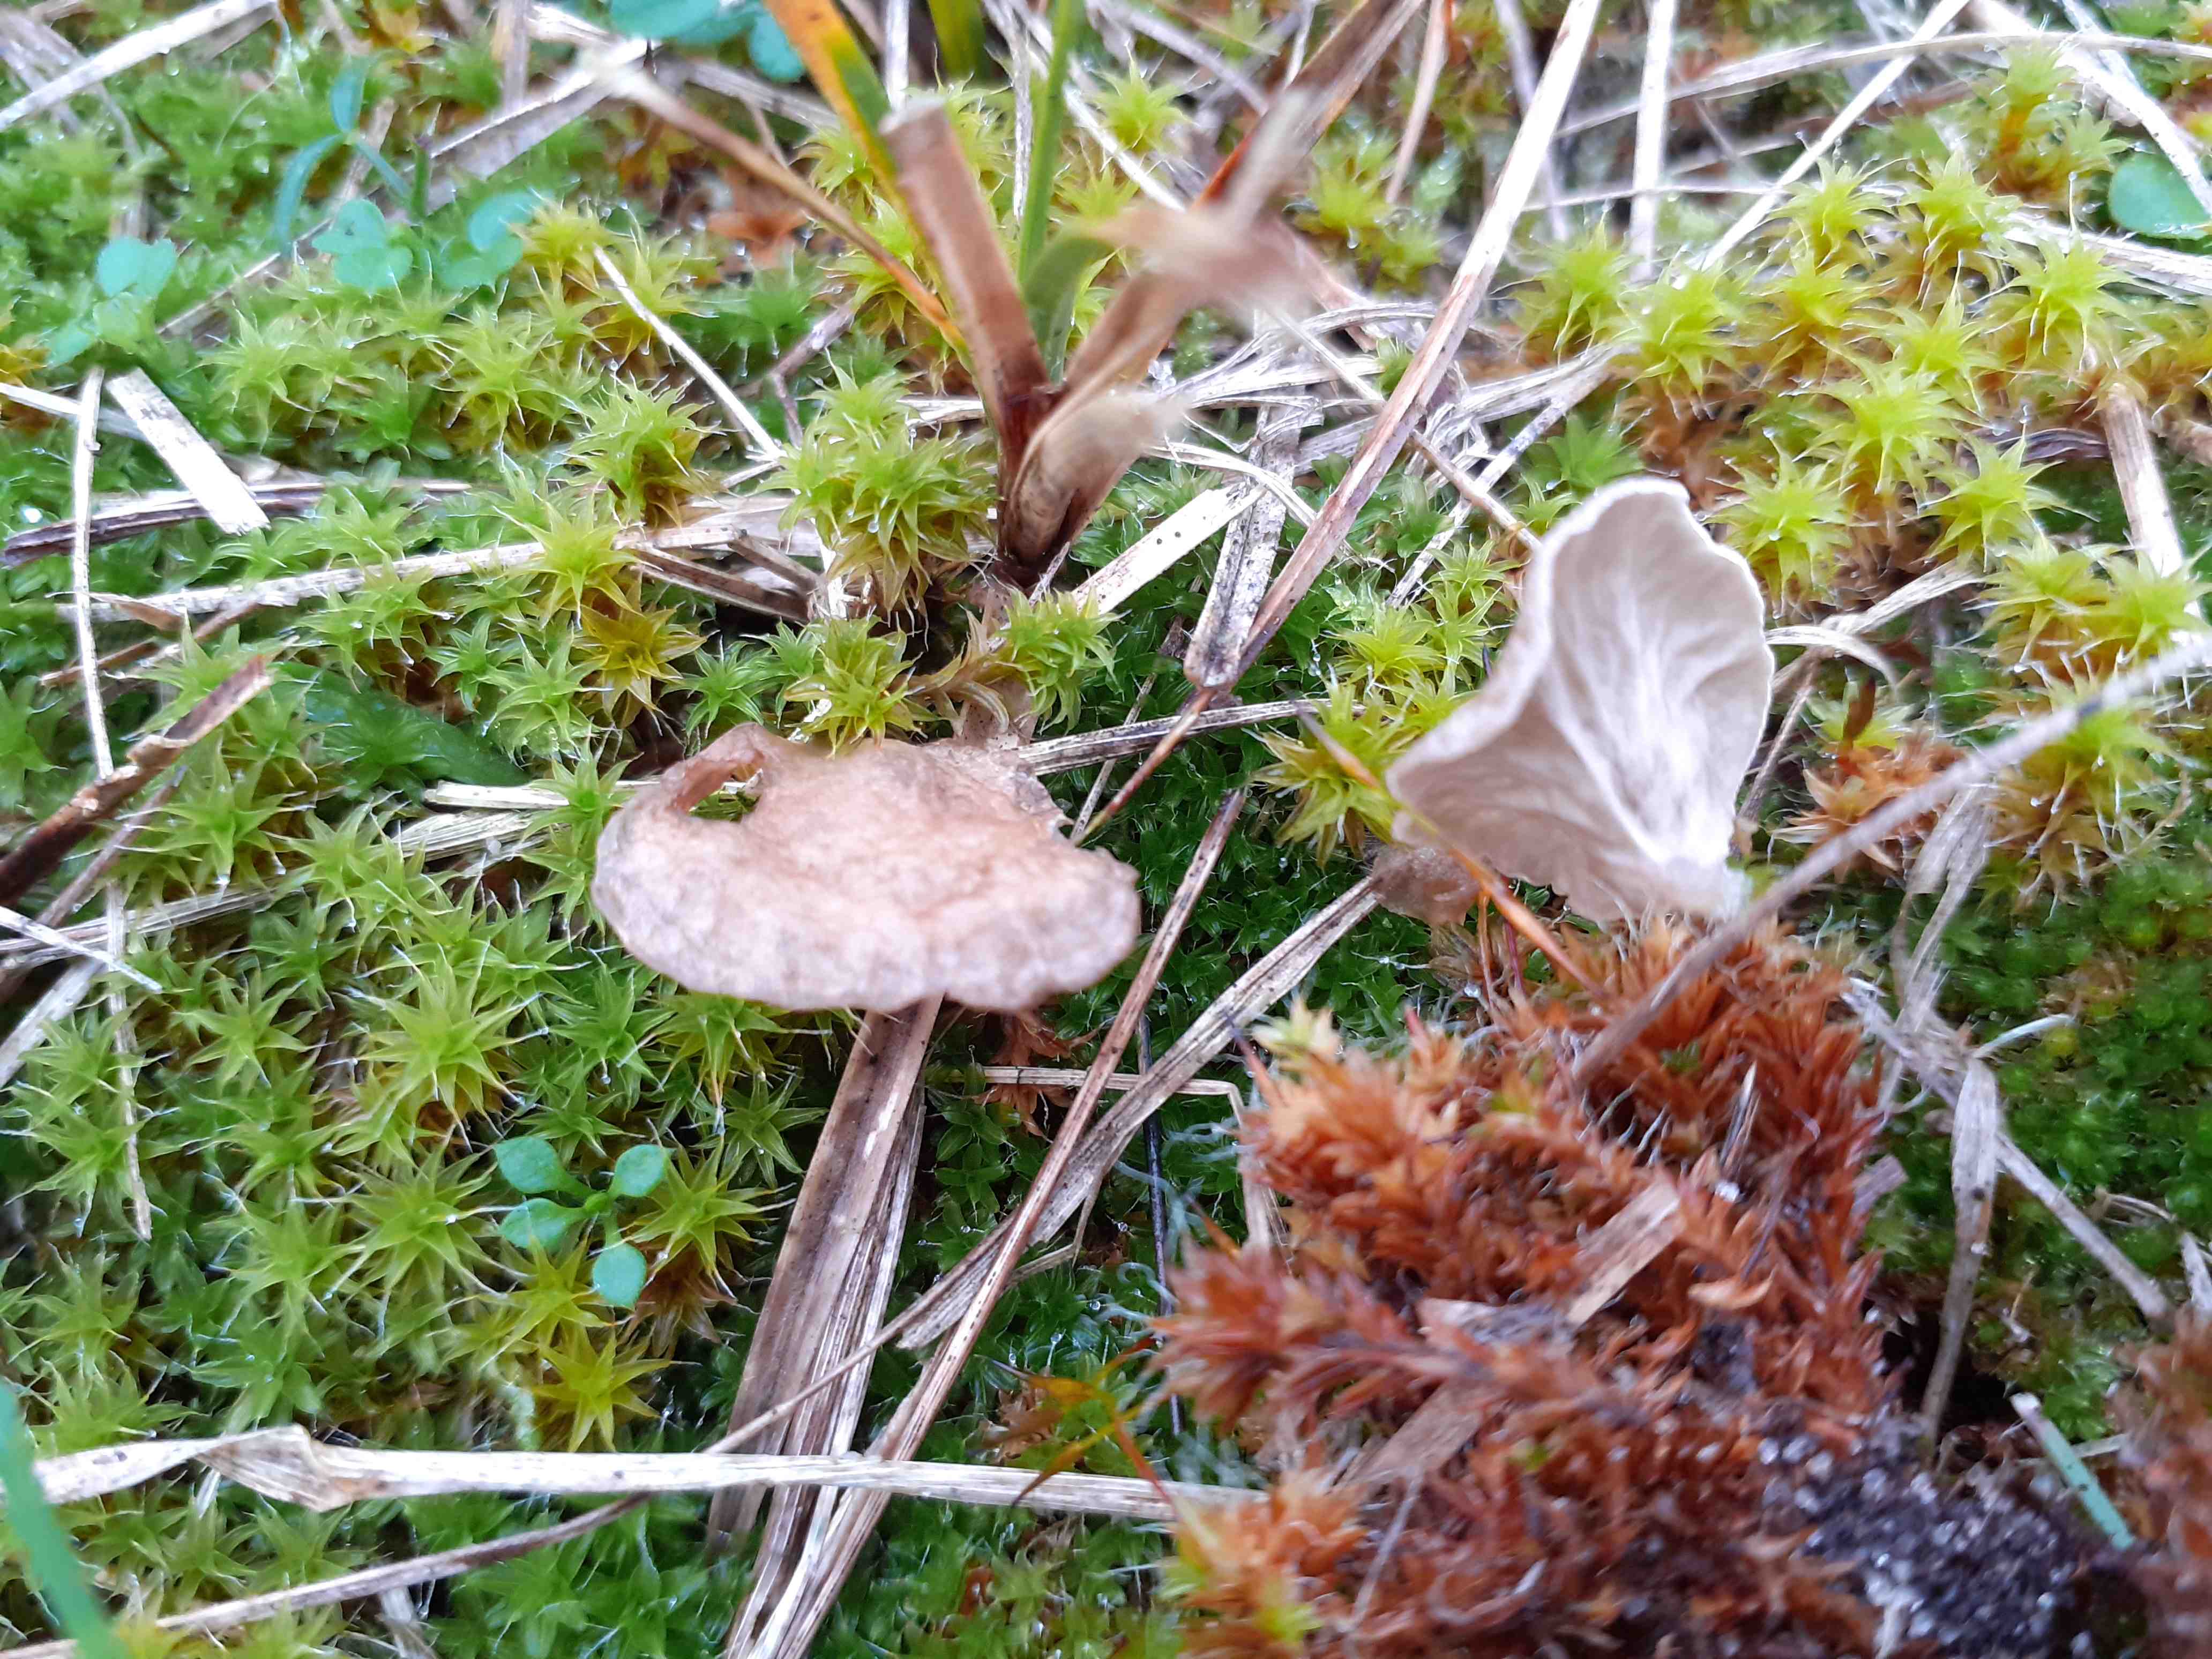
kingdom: Fungi
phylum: Basidiomycota
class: Agaricomycetes
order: Agaricales
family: Hygrophoraceae
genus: Arrhenia
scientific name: Arrhenia spathulata
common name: skæv fontænehat
